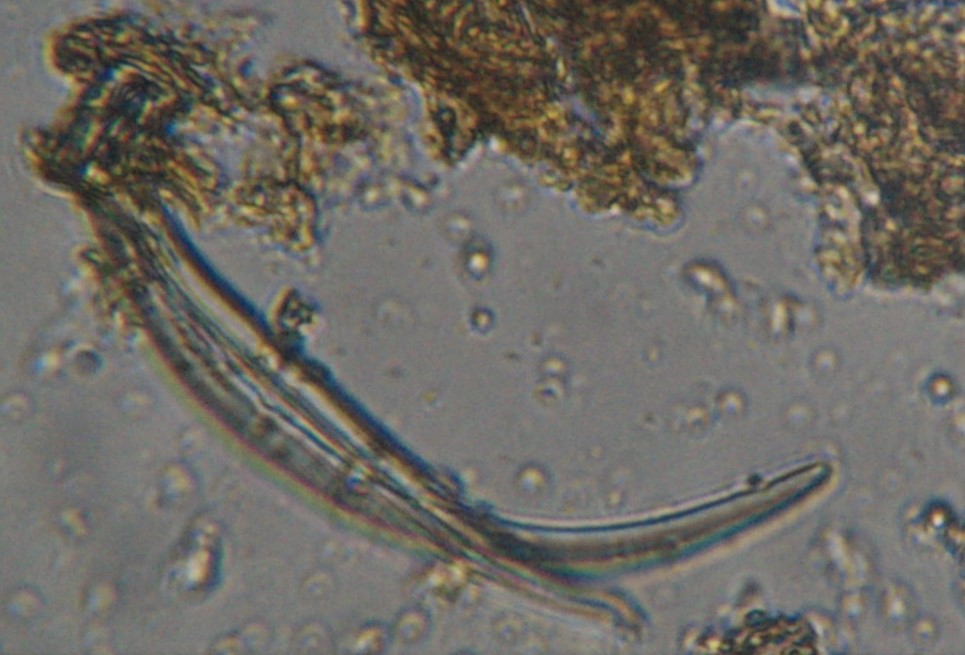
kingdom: Fungi
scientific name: Fungi
